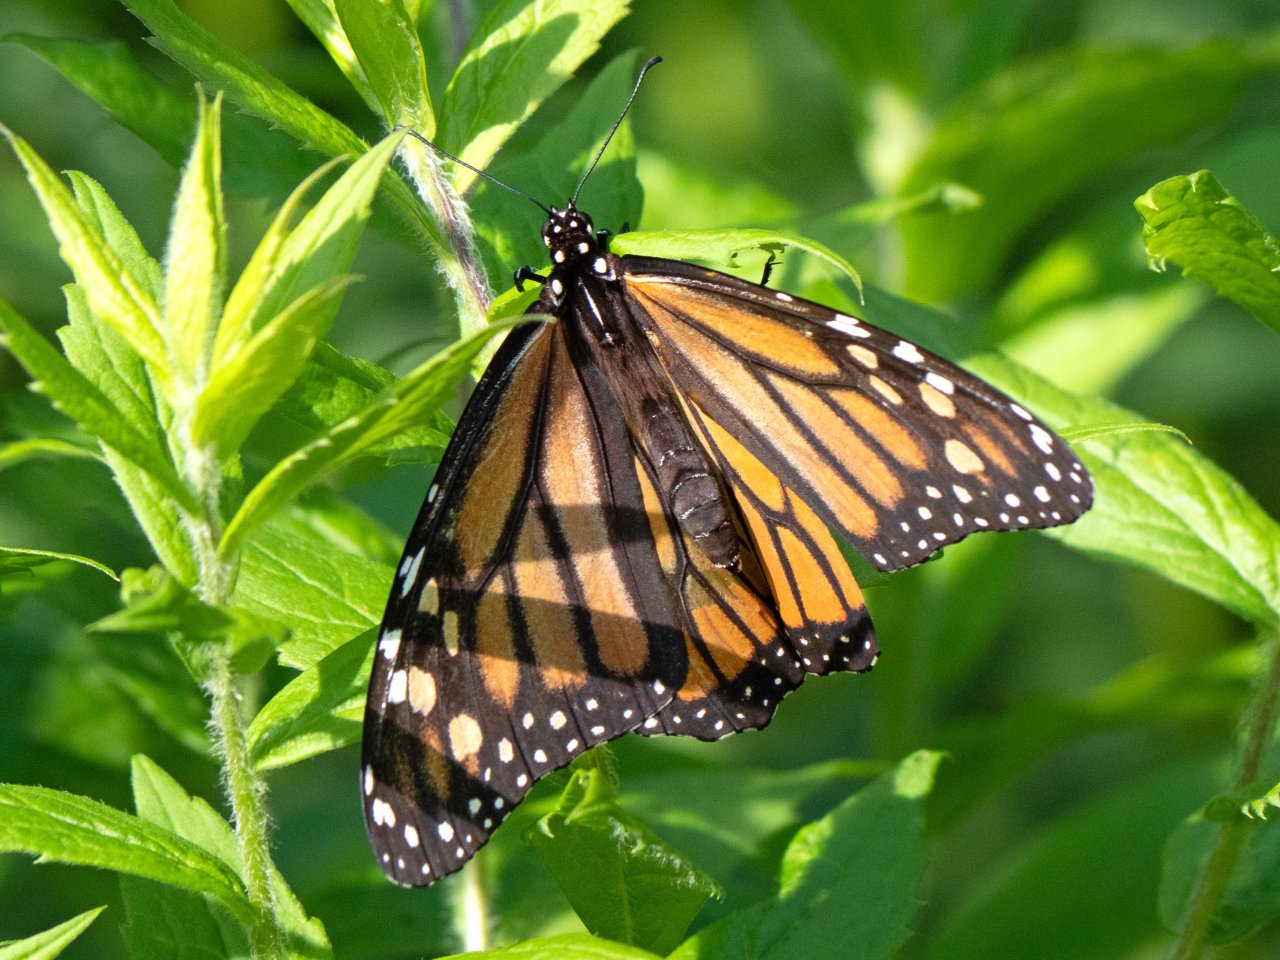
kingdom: Animalia
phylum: Arthropoda
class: Insecta
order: Lepidoptera
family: Nymphalidae
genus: Danaus
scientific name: Danaus plexippus
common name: Monarch
